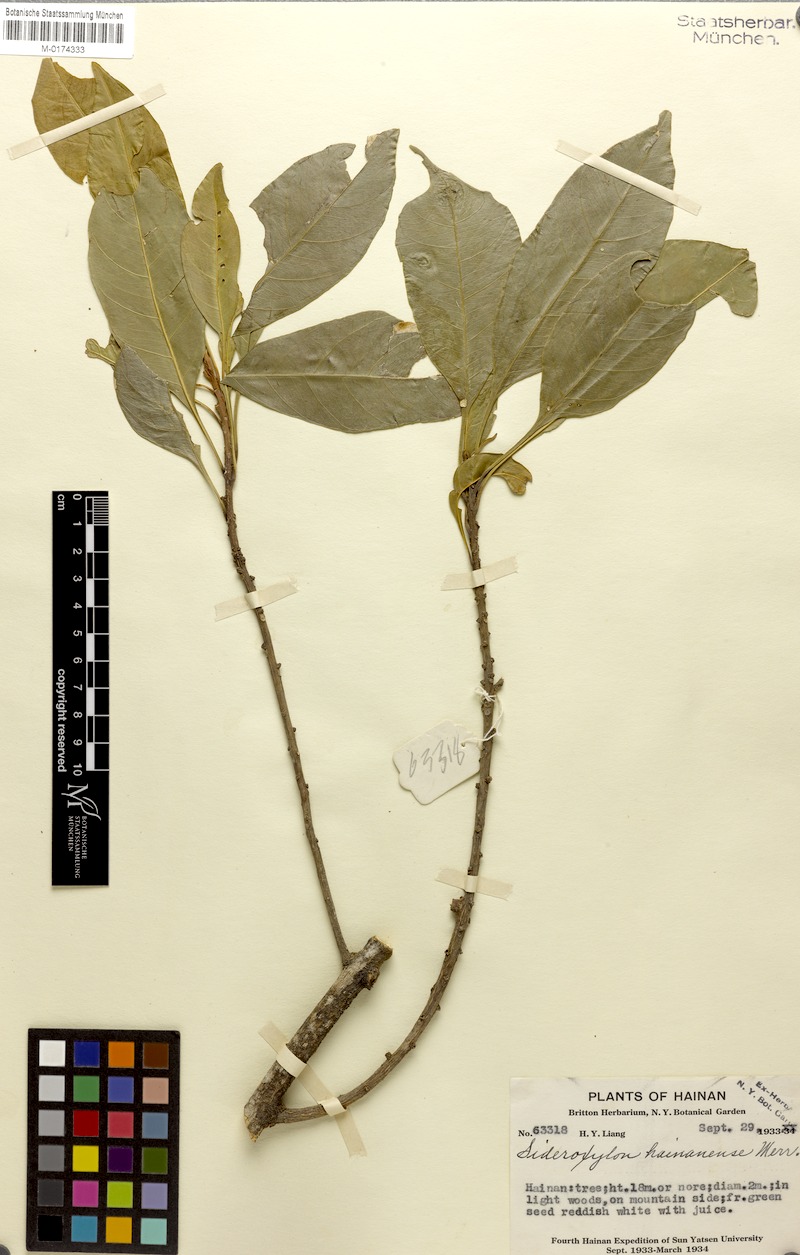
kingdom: Plantae
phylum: Tracheophyta
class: Magnoliopsida
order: Ericales
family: Sapotaceae
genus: Planchonella
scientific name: Planchonella annamensis
